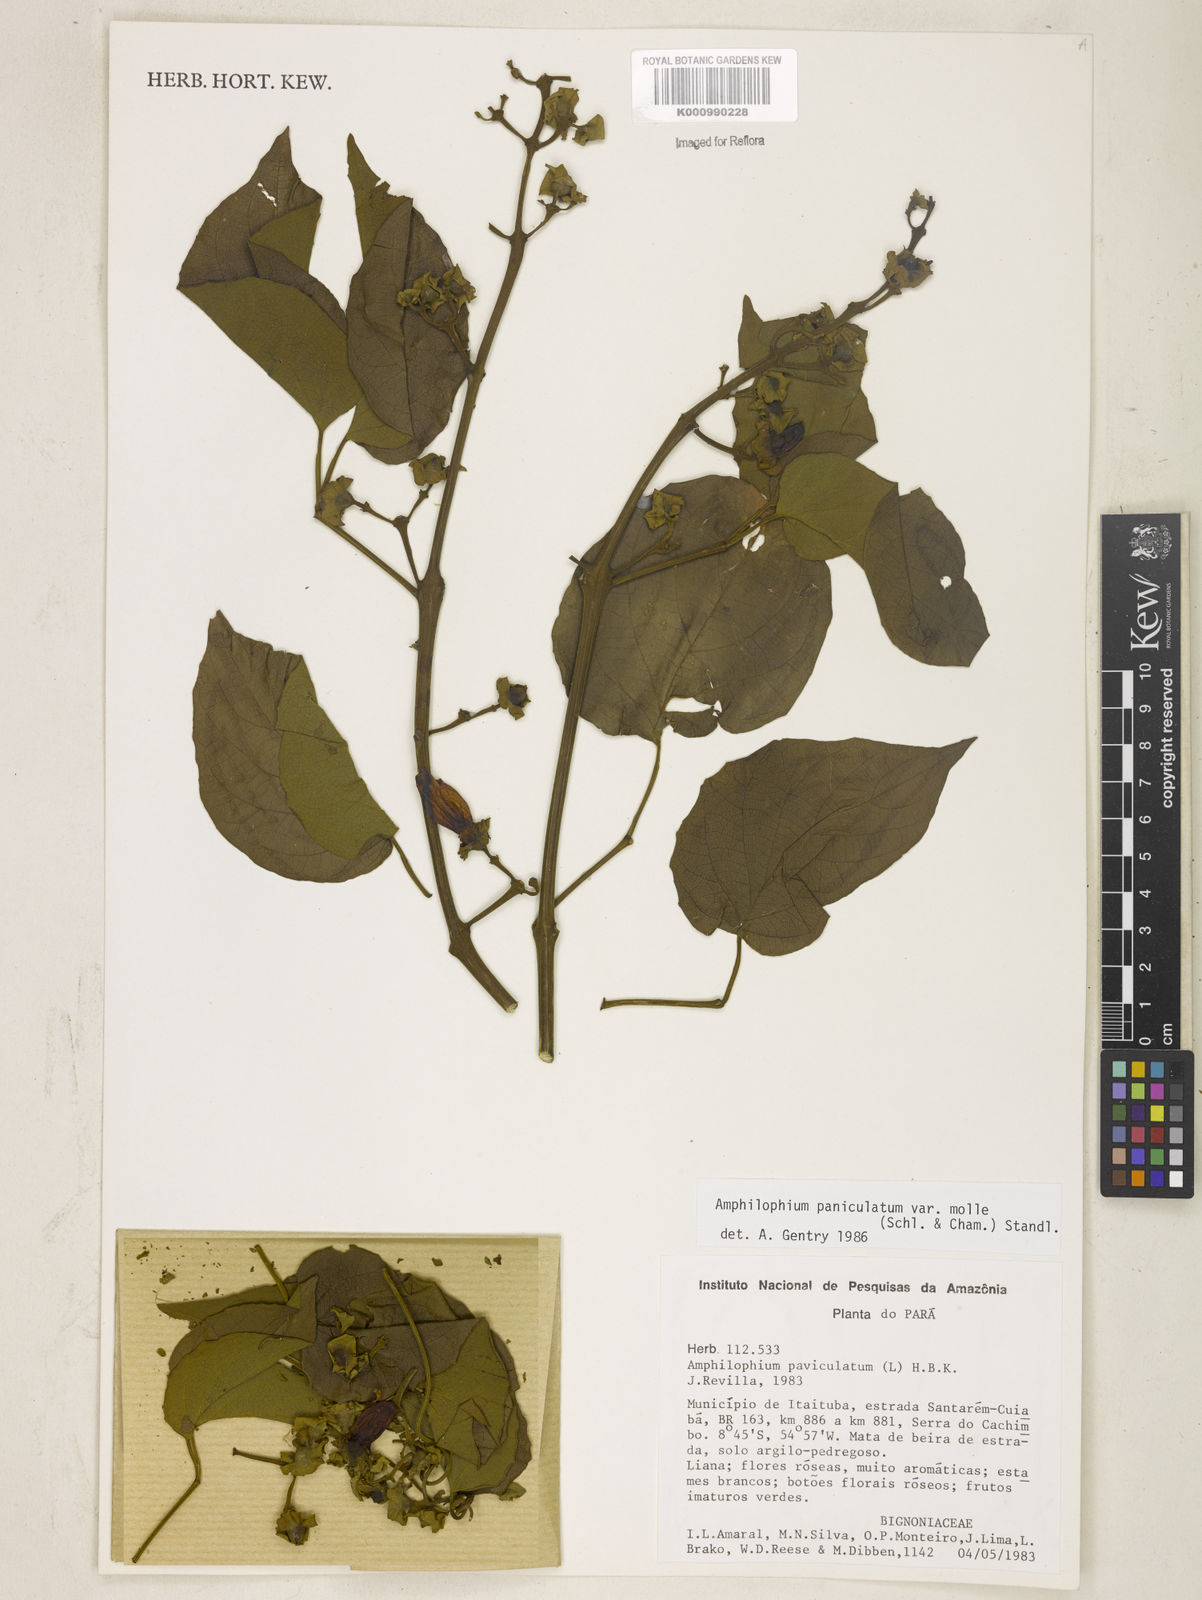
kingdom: Plantae
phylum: Tracheophyta
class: Magnoliopsida
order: Lamiales
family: Bignoniaceae
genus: Amphilophium
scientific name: Amphilophium paniculatum
